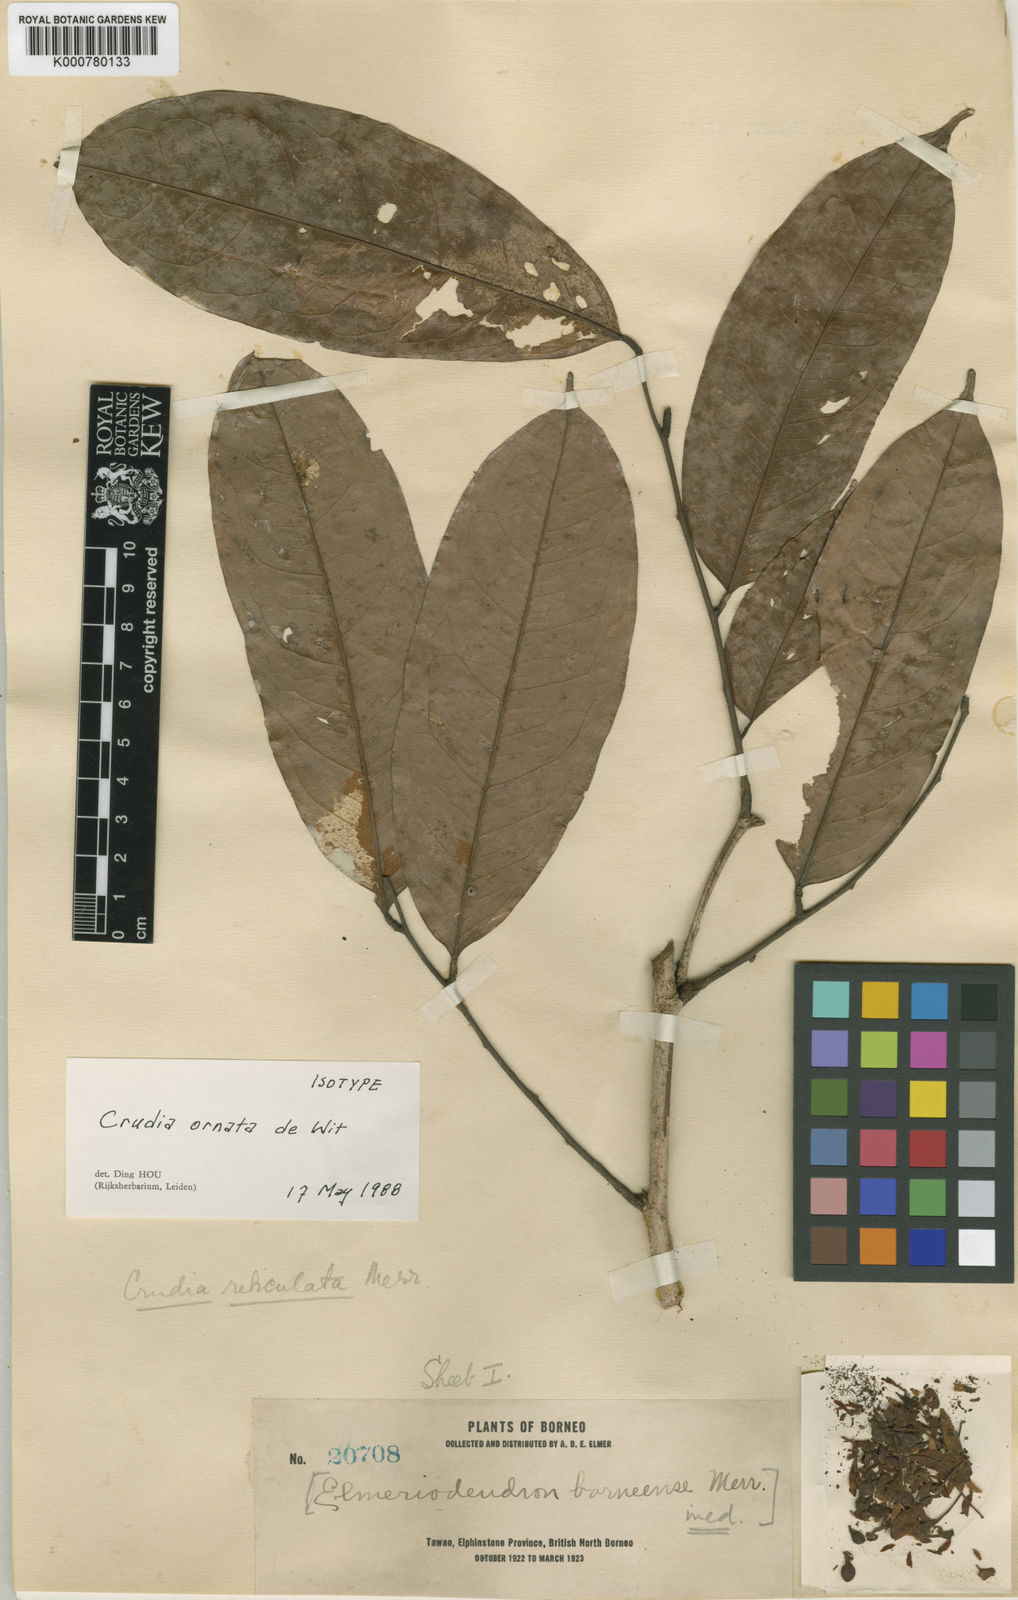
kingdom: Plantae
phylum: Tracheophyta
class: Magnoliopsida
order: Fabales
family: Fabaceae
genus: Crudia
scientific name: Crudia ornata
